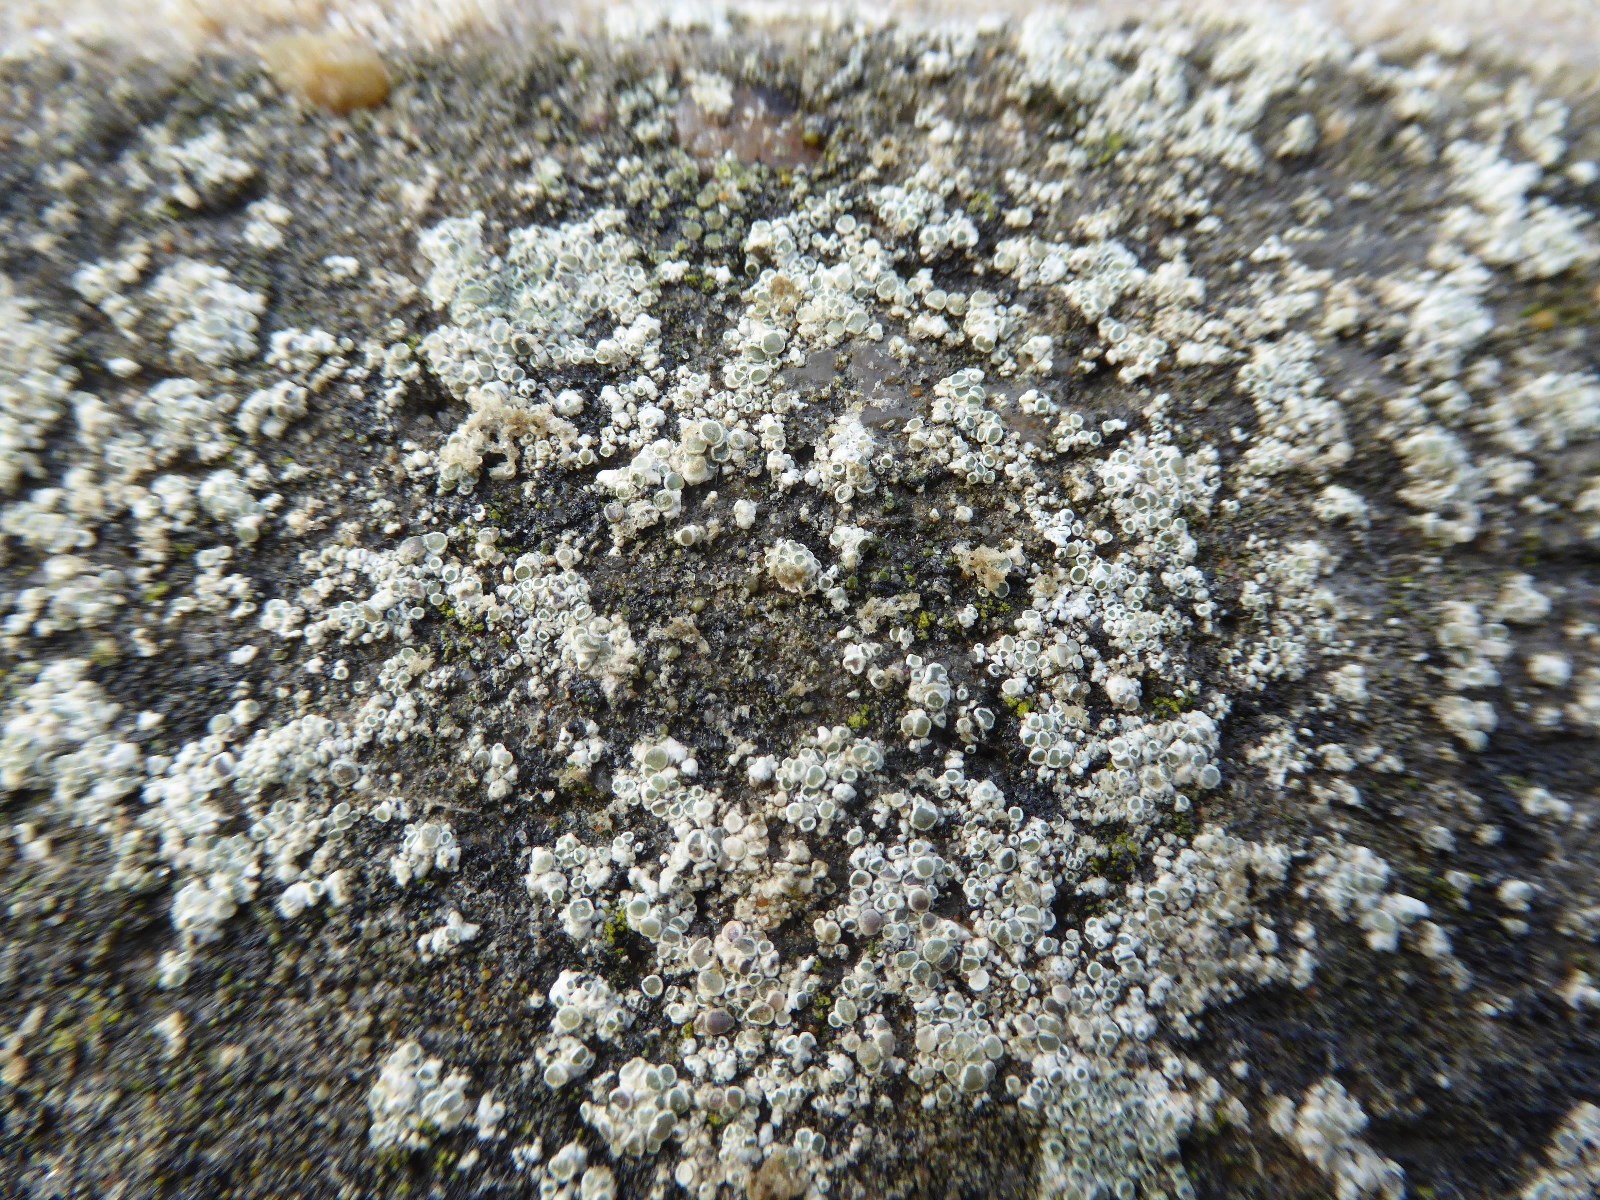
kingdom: Fungi
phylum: Ascomycota
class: Lecanoromycetes
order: Lecanorales
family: Lecanoraceae
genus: Polyozosia
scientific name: Polyozosia albescens
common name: cement-kantskivelav
